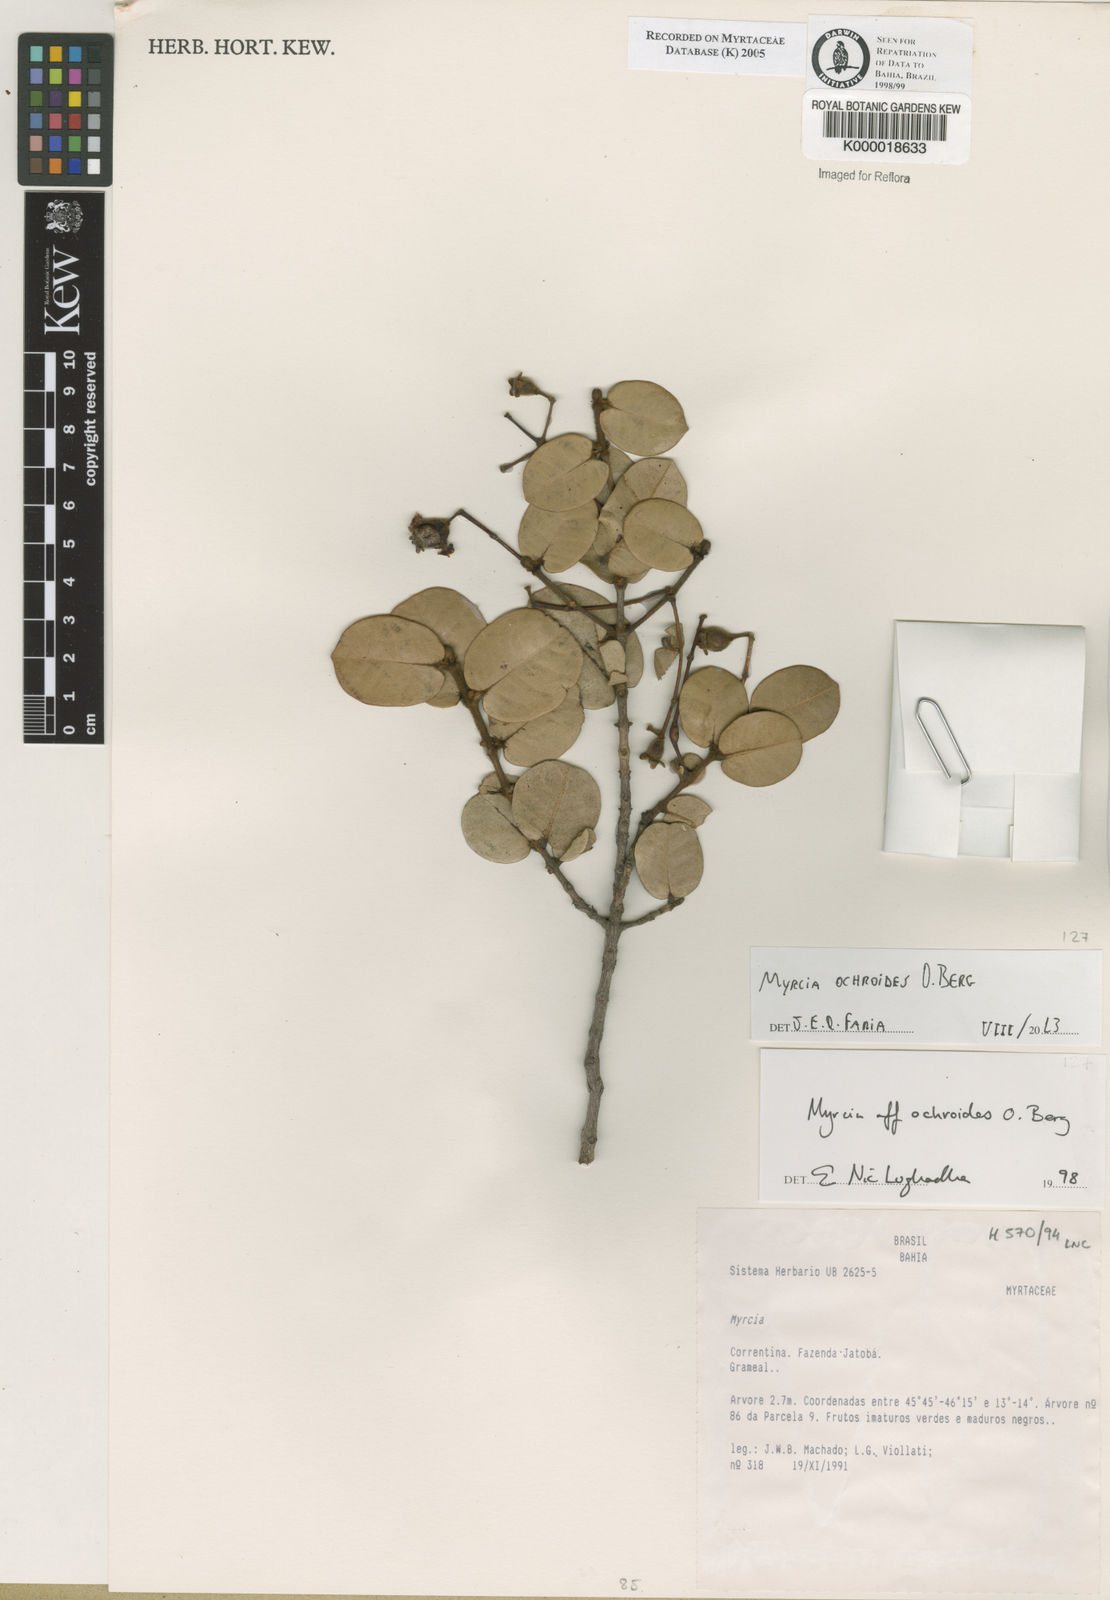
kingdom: Plantae
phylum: Tracheophyta
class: Magnoliopsida
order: Myrtales
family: Myrtaceae
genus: Myrcia
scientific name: Myrcia ochroides
